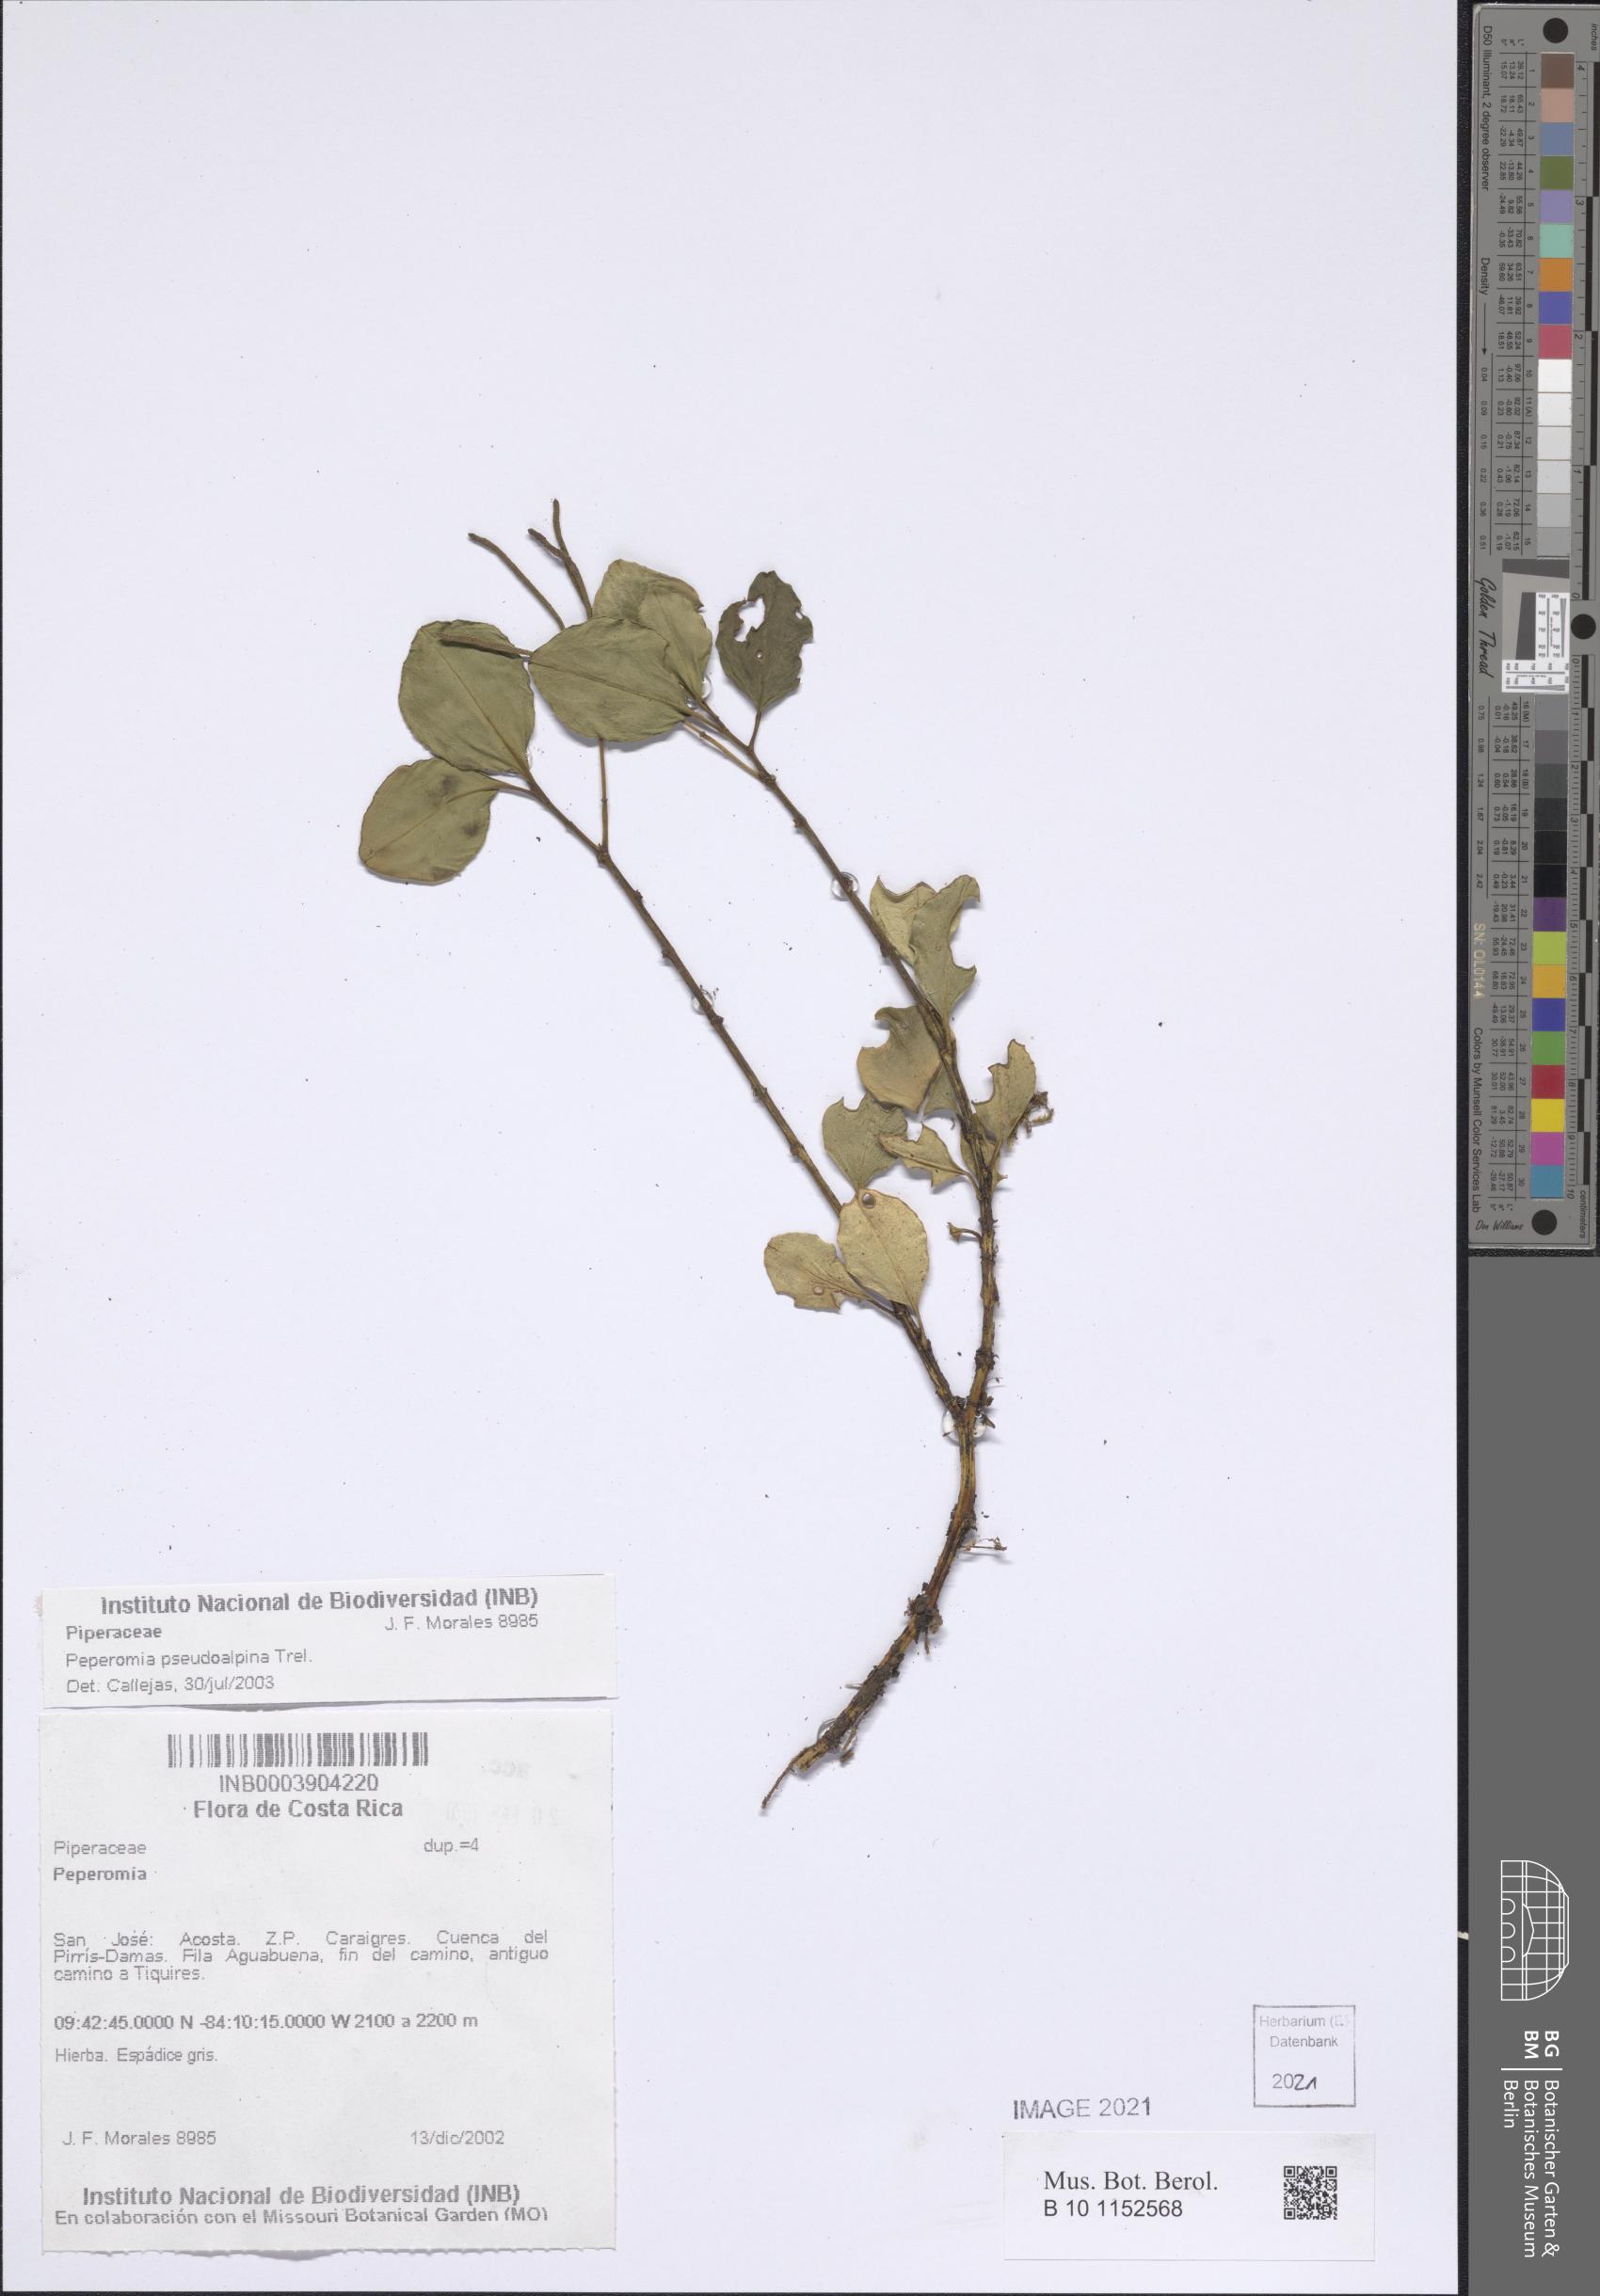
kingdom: Plantae
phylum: Tracheophyta
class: Magnoliopsida
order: Piperales
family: Piperaceae
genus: Peperomia
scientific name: Peperomia pseudoalpina
